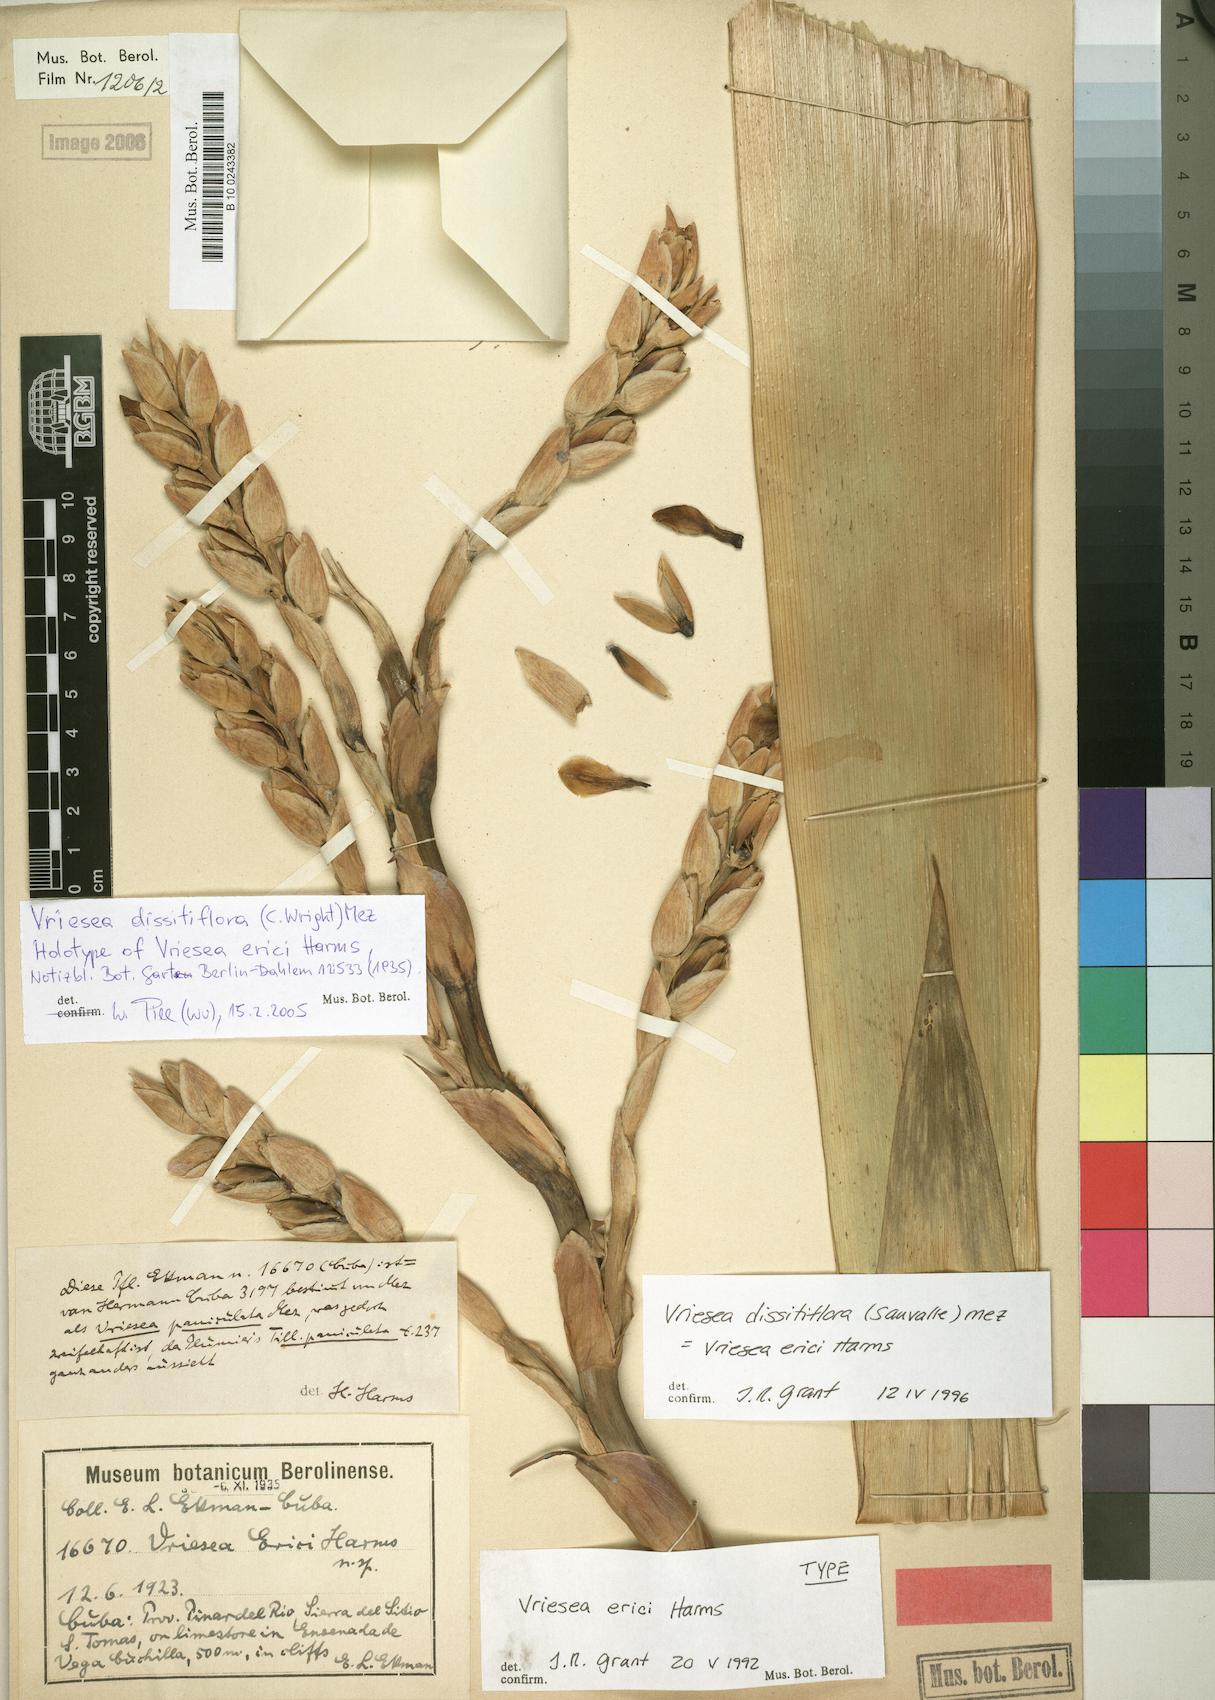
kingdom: Plantae
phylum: Tracheophyta
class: Liliopsida
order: Poales
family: Bromeliaceae
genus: Vriesea
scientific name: Vriesea dissitiflora
